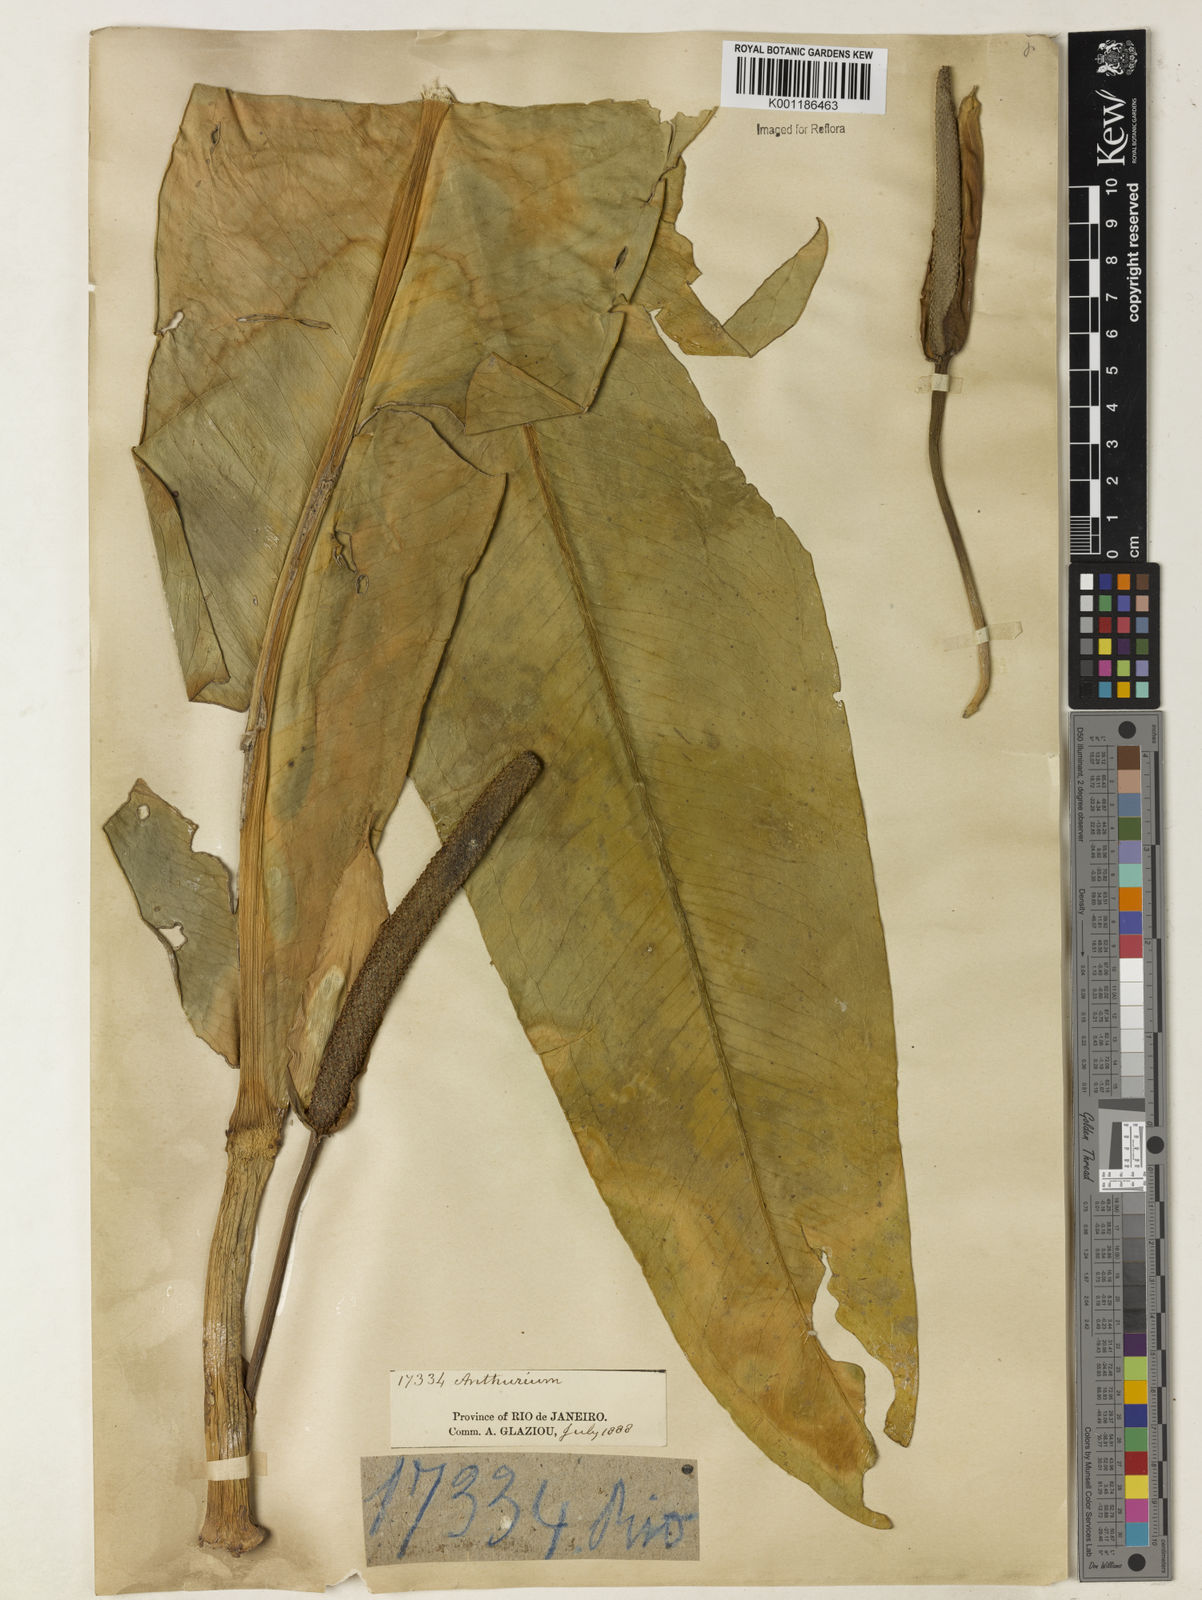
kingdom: Plantae
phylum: Tracheophyta
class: Liliopsida
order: Alismatales
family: Araceae
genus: Anthurium
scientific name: Anthurium coriaceum
